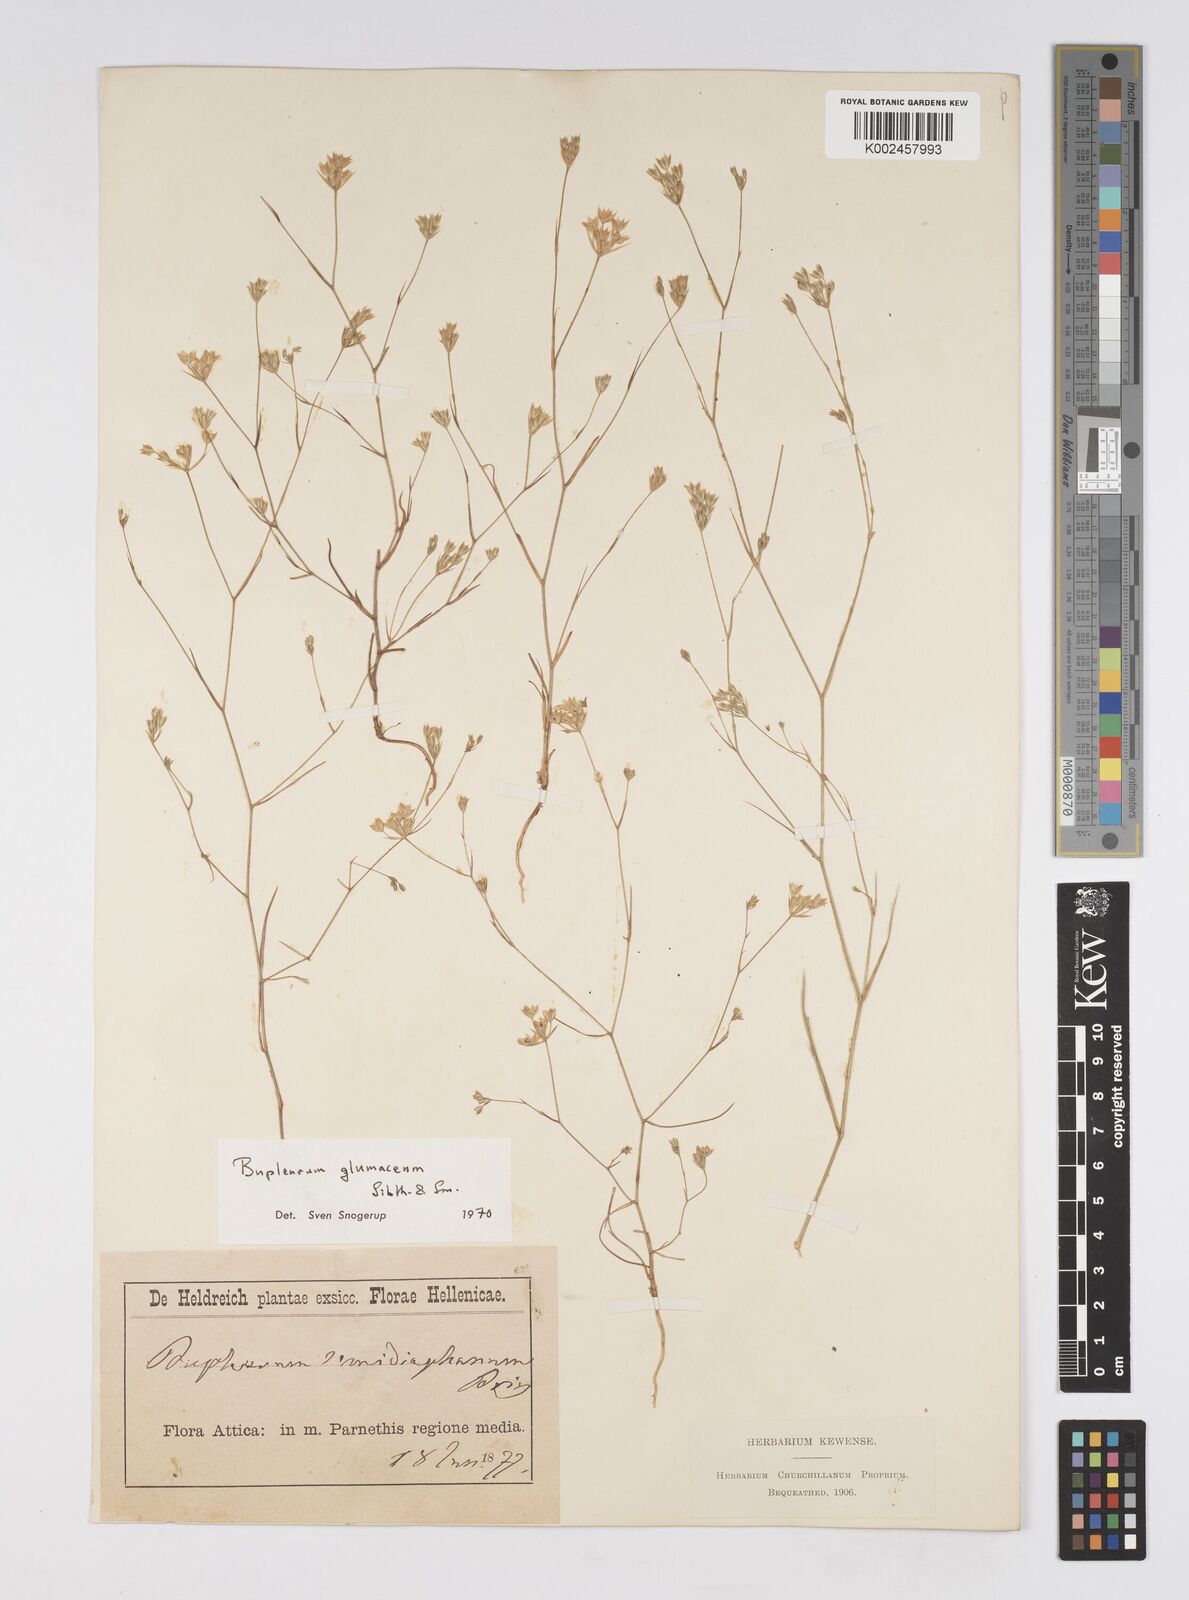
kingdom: Plantae
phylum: Tracheophyta
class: Magnoliopsida
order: Apiales
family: Apiaceae
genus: Bupleurum
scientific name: Bupleurum glumaceum
